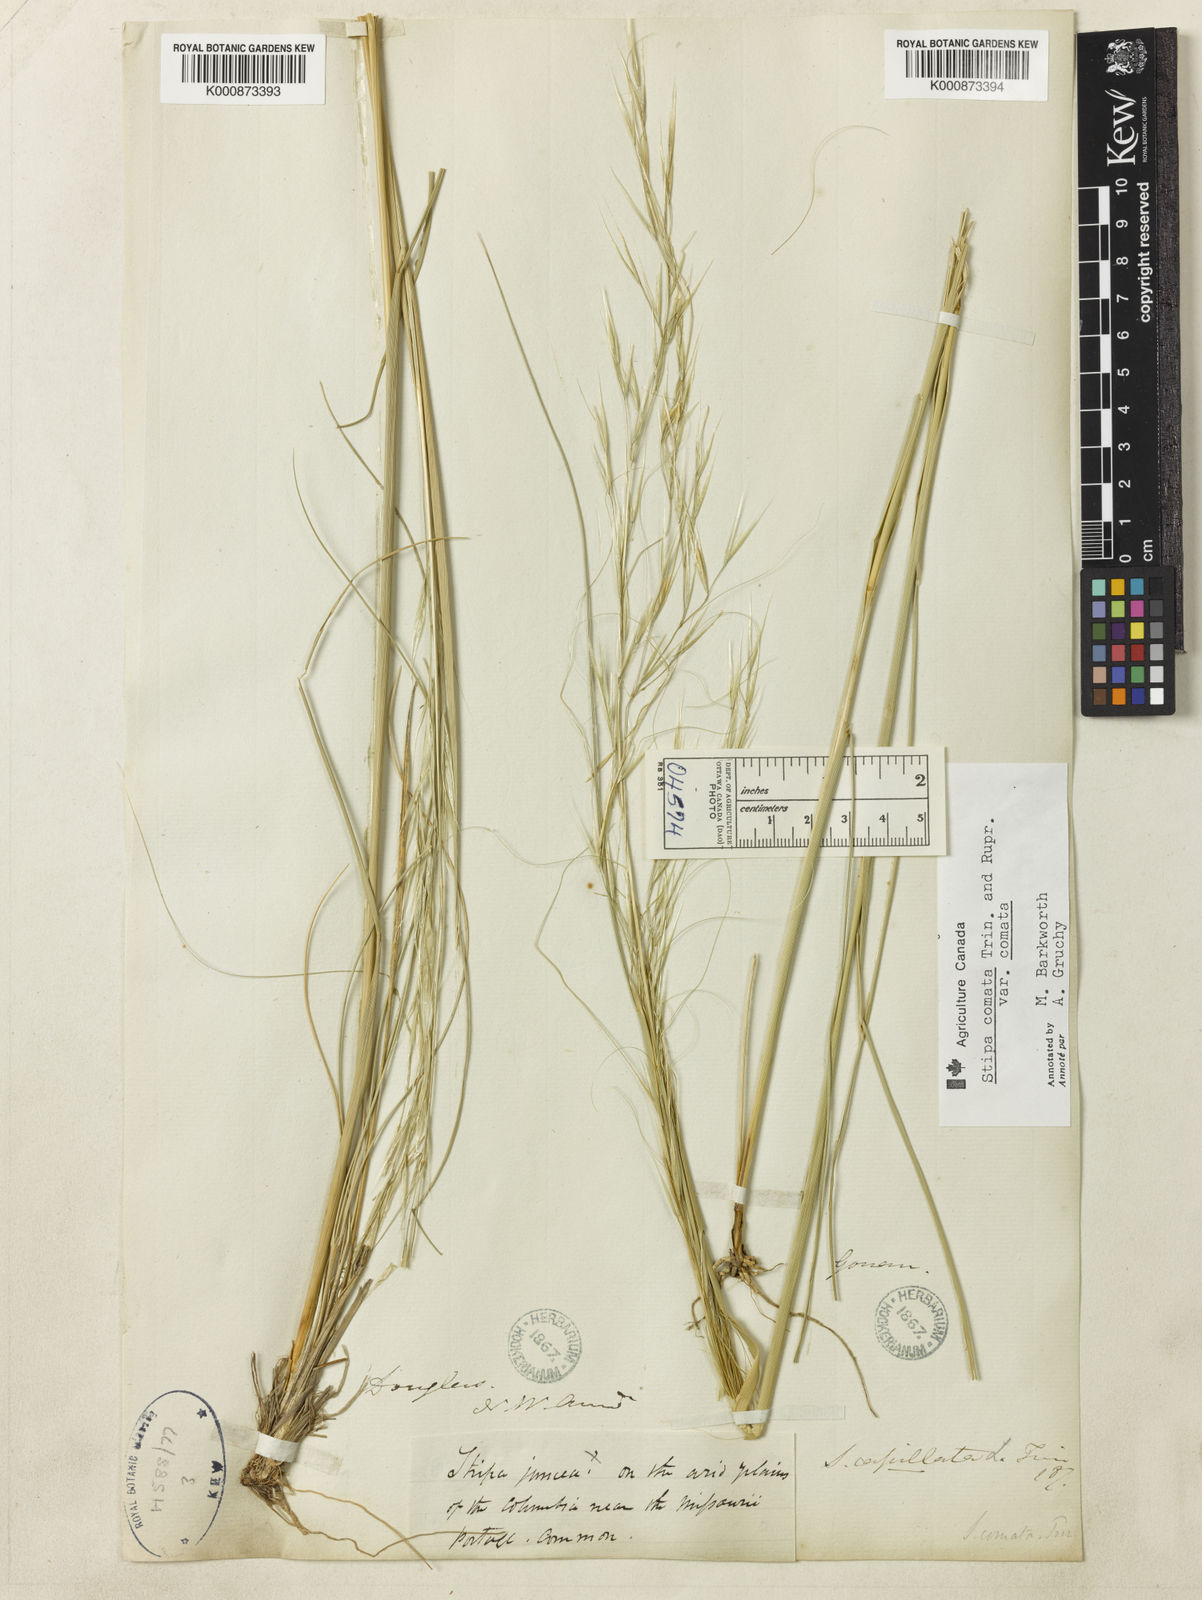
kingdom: Plantae
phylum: Tracheophyta
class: Liliopsida
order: Poales
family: Poaceae
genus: Hesperostipa
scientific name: Hesperostipa comata
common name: Needle-and-thread grass
